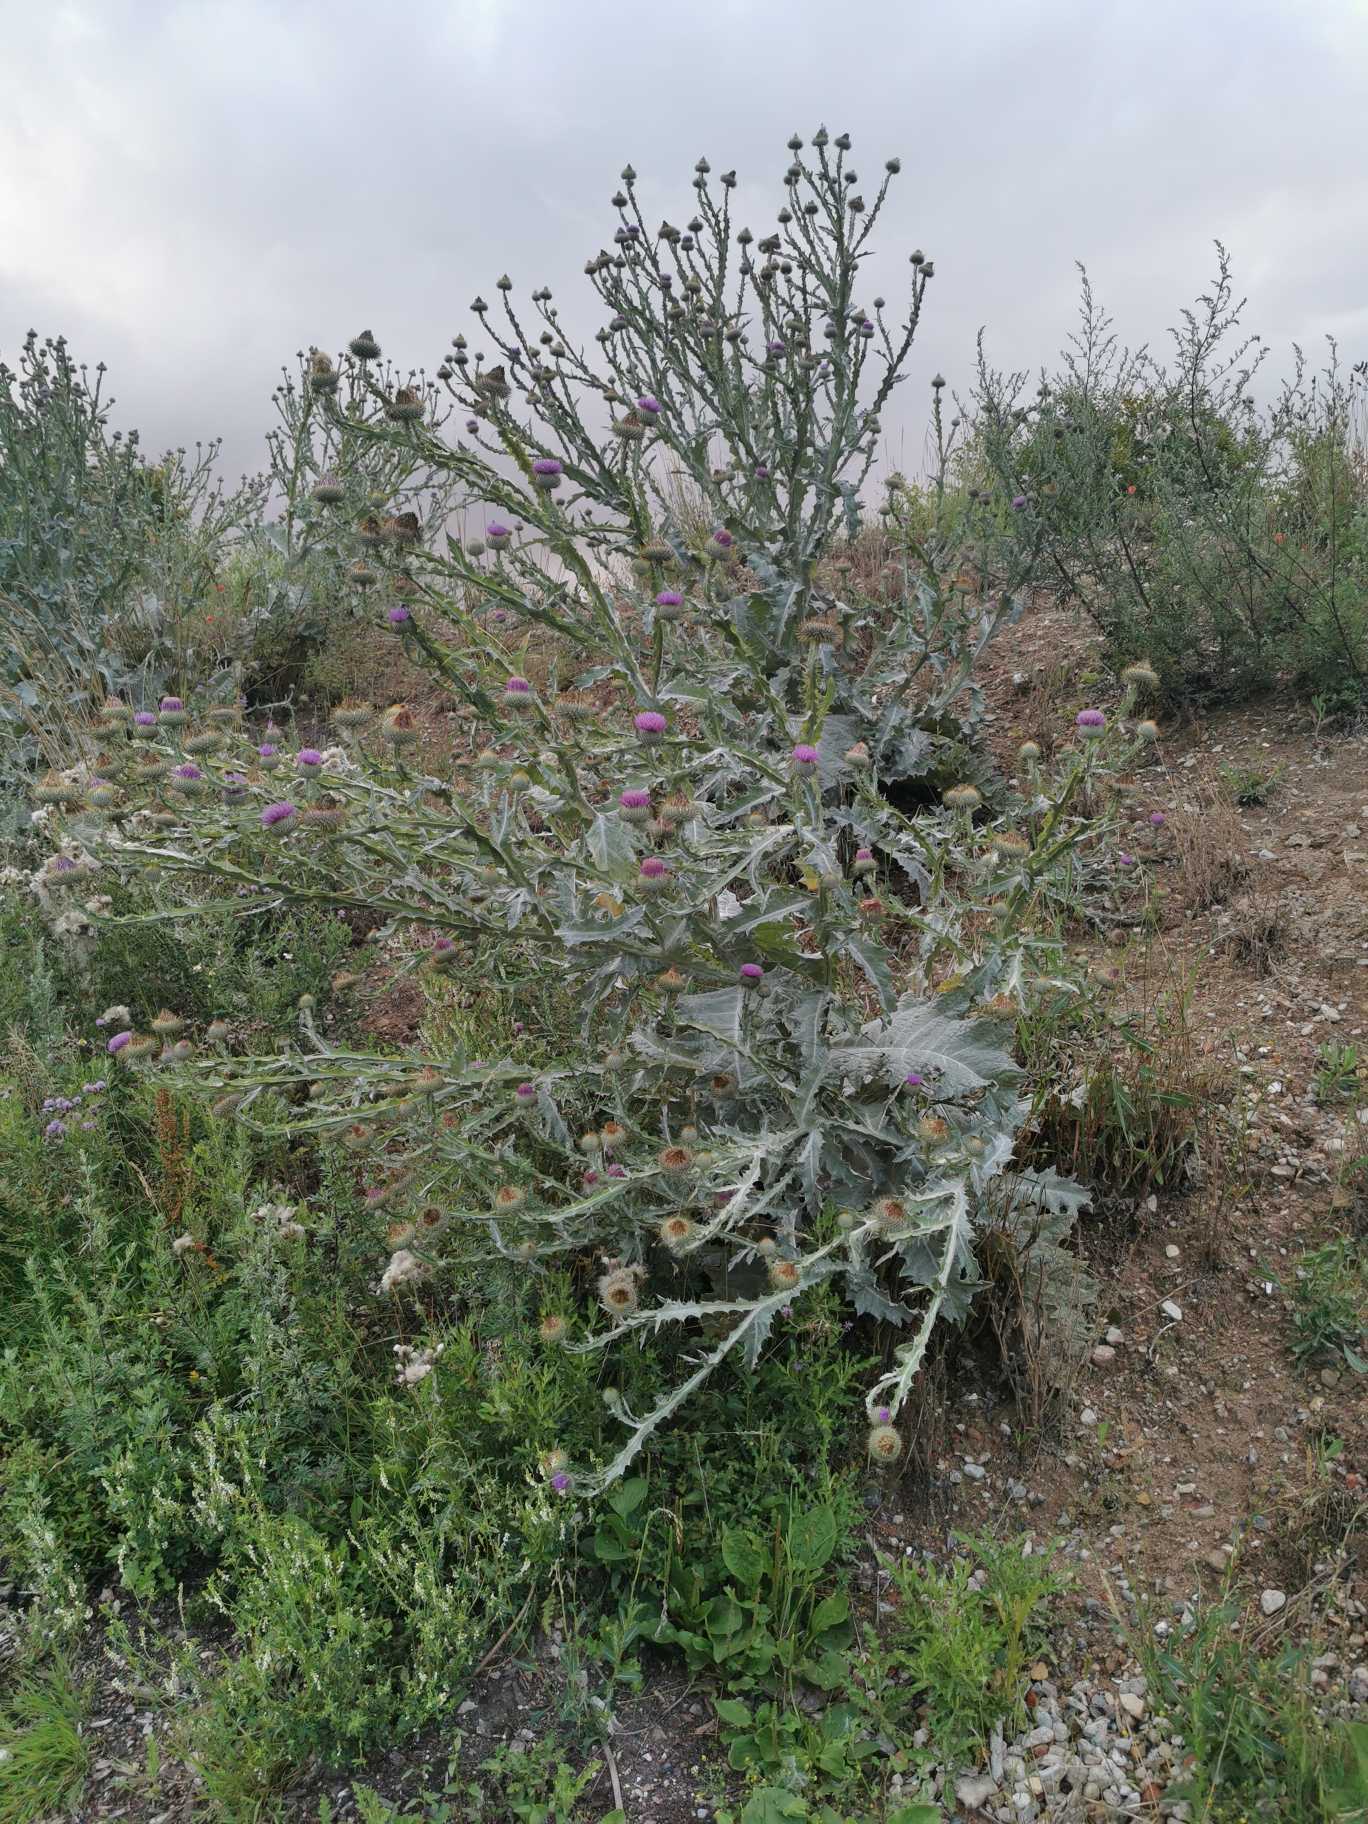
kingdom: Plantae
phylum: Tracheophyta
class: Magnoliopsida
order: Asterales
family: Asteraceae
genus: Onopordum
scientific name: Onopordum acanthium
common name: Æselfoder
